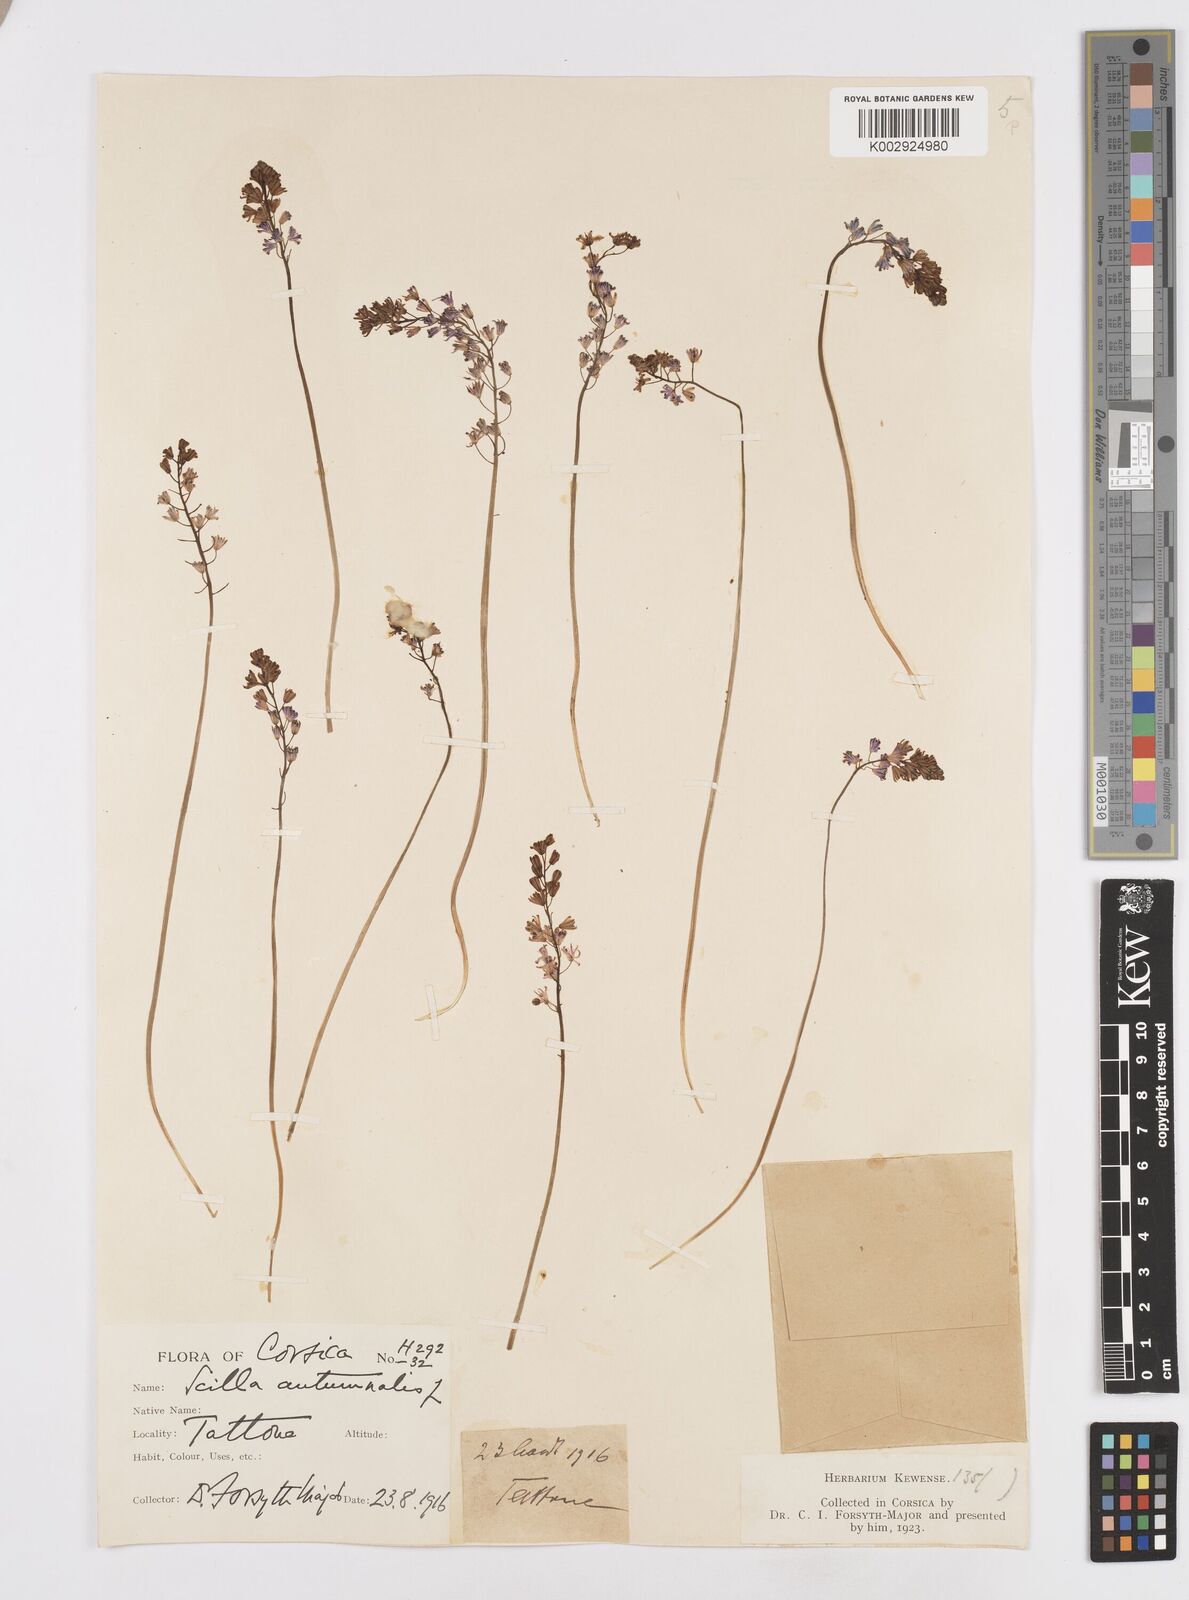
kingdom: Plantae
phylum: Tracheophyta
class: Liliopsida
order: Asparagales
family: Asparagaceae
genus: Prospero
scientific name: Prospero autumnale
